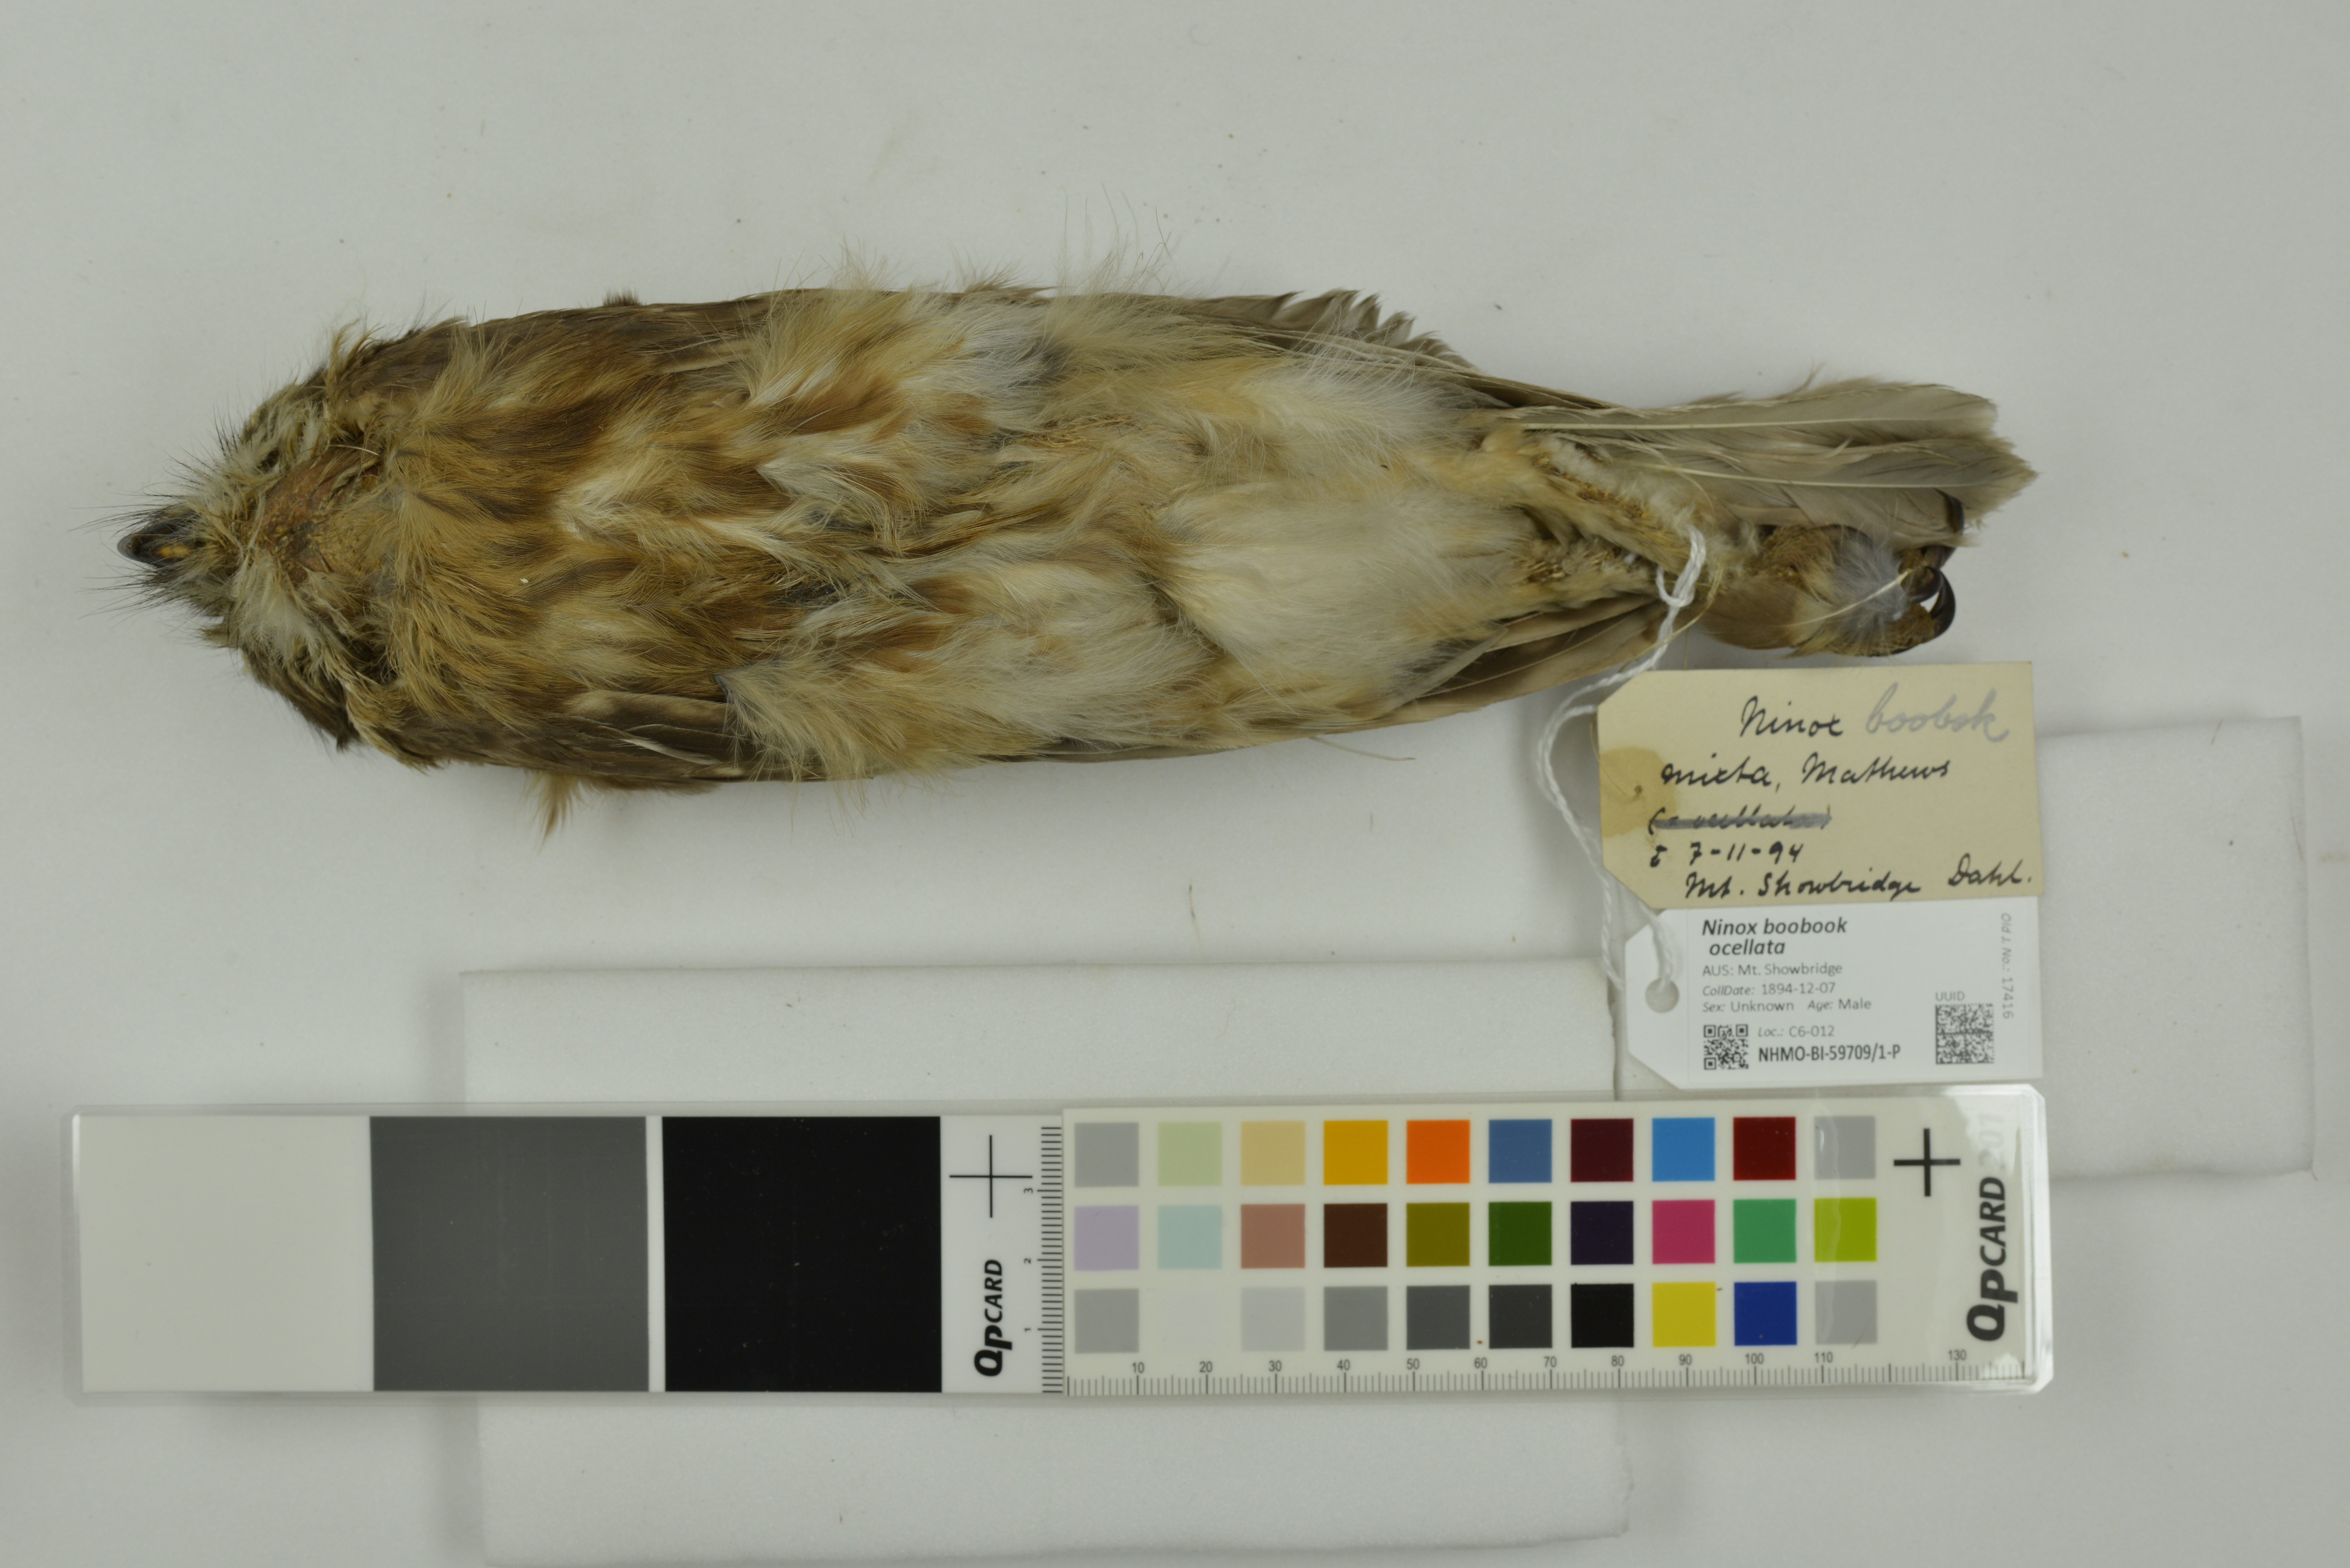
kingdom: Animalia
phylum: Chordata
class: Aves
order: Strigiformes
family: Strigidae
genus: Ninox
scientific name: Ninox boobook
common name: Southern boobook
